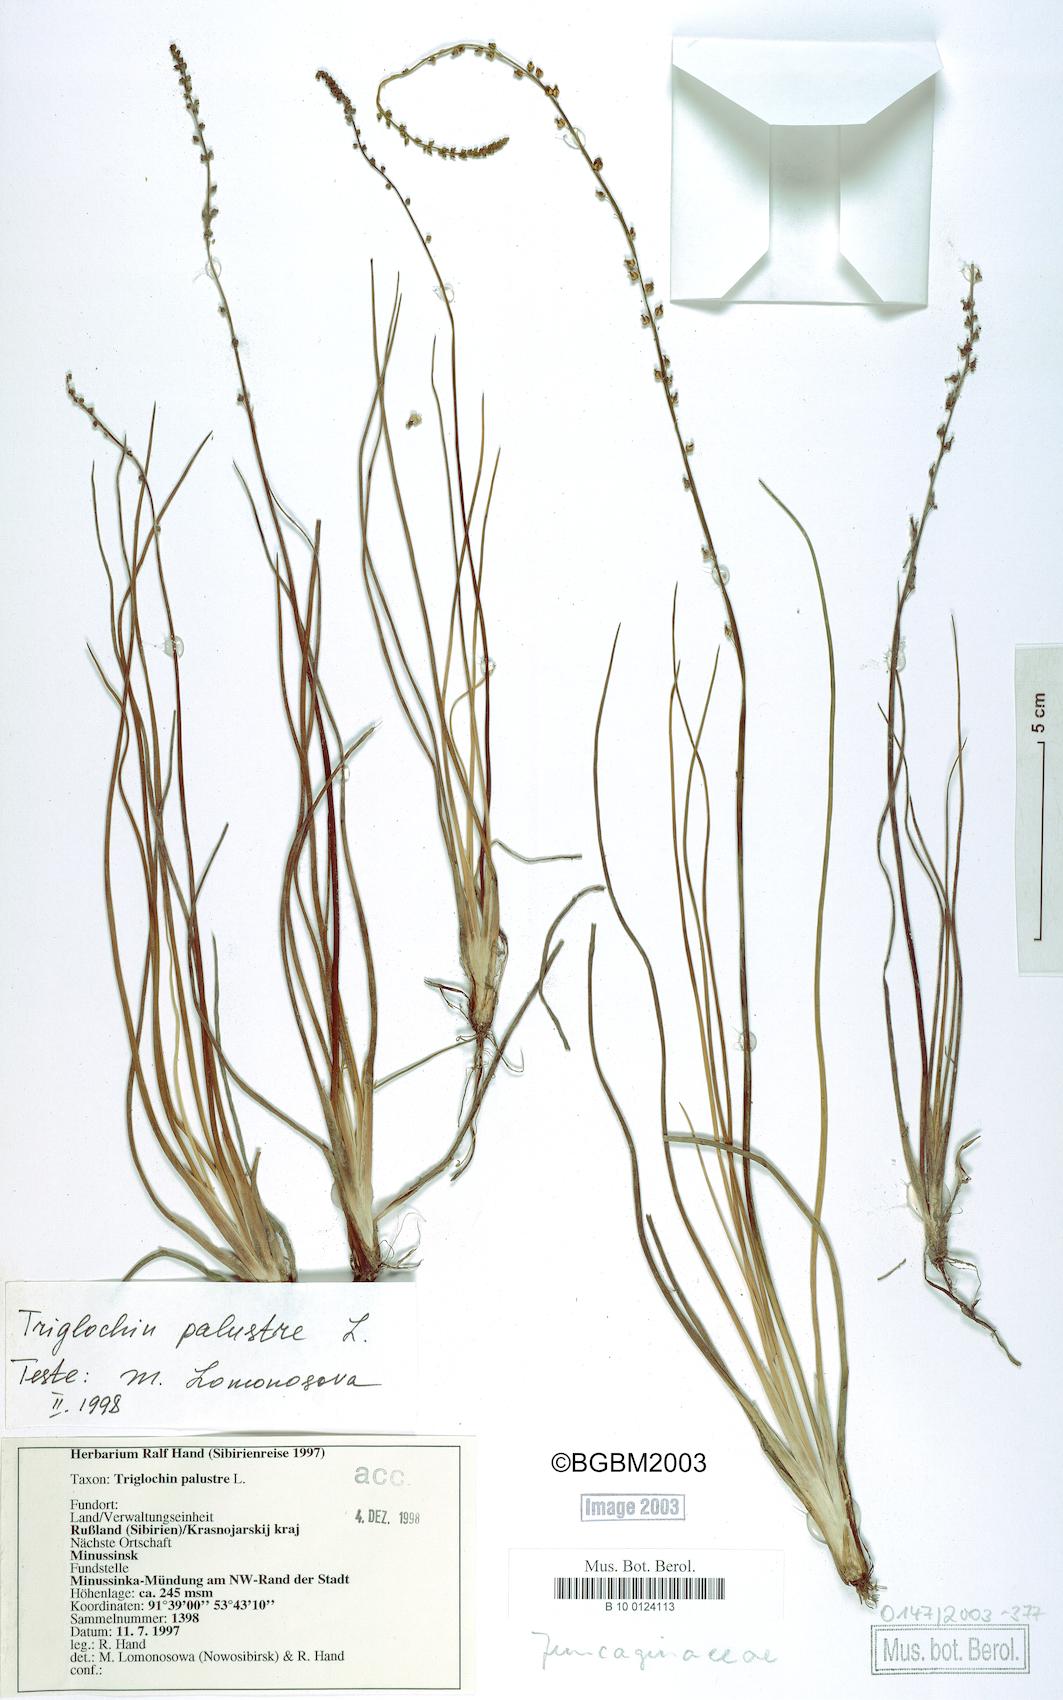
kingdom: Plantae
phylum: Tracheophyta
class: Liliopsida
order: Alismatales
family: Juncaginaceae
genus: Triglochin
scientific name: Triglochin palustris
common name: Marsh arrowgrass
